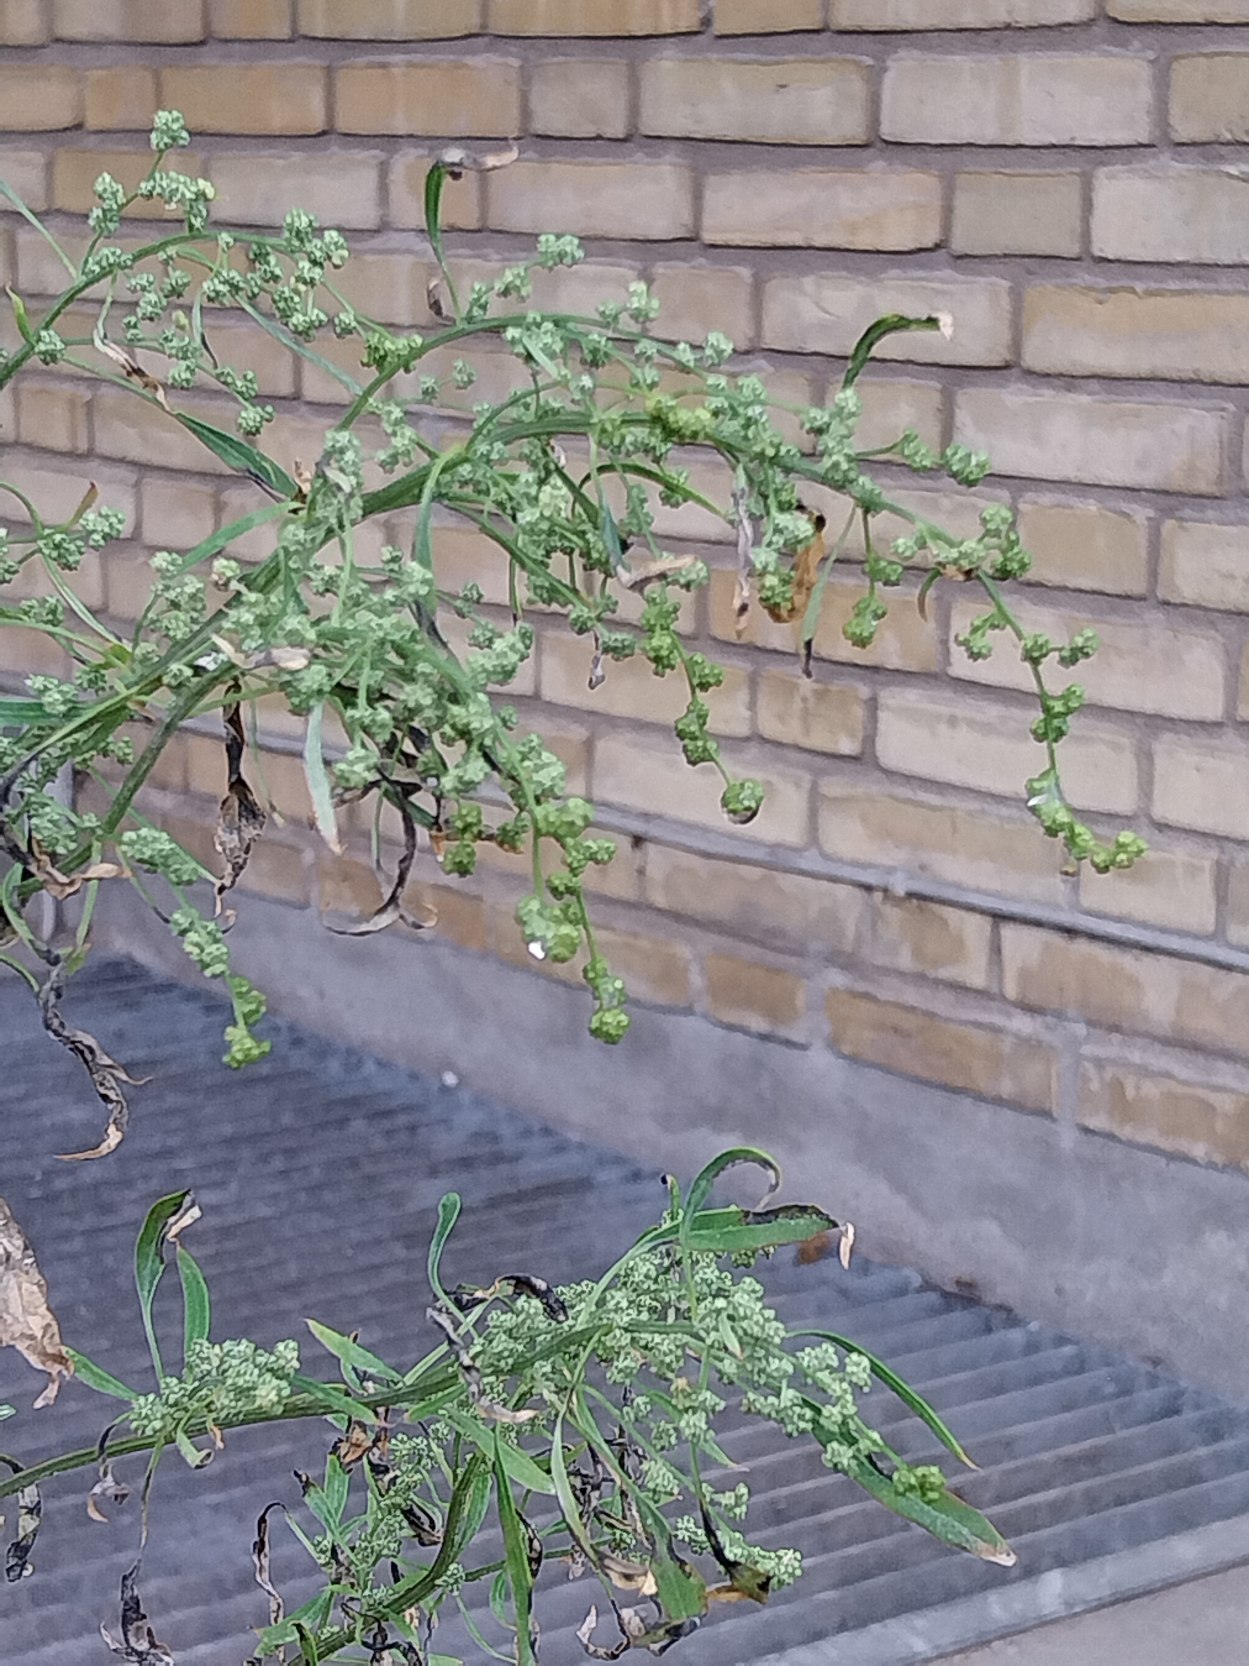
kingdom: Plantae
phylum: Tracheophyta
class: Magnoliopsida
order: Caryophyllales
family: Amaranthaceae
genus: Atriplex
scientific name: Atriplex patula
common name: Svine-mælde
